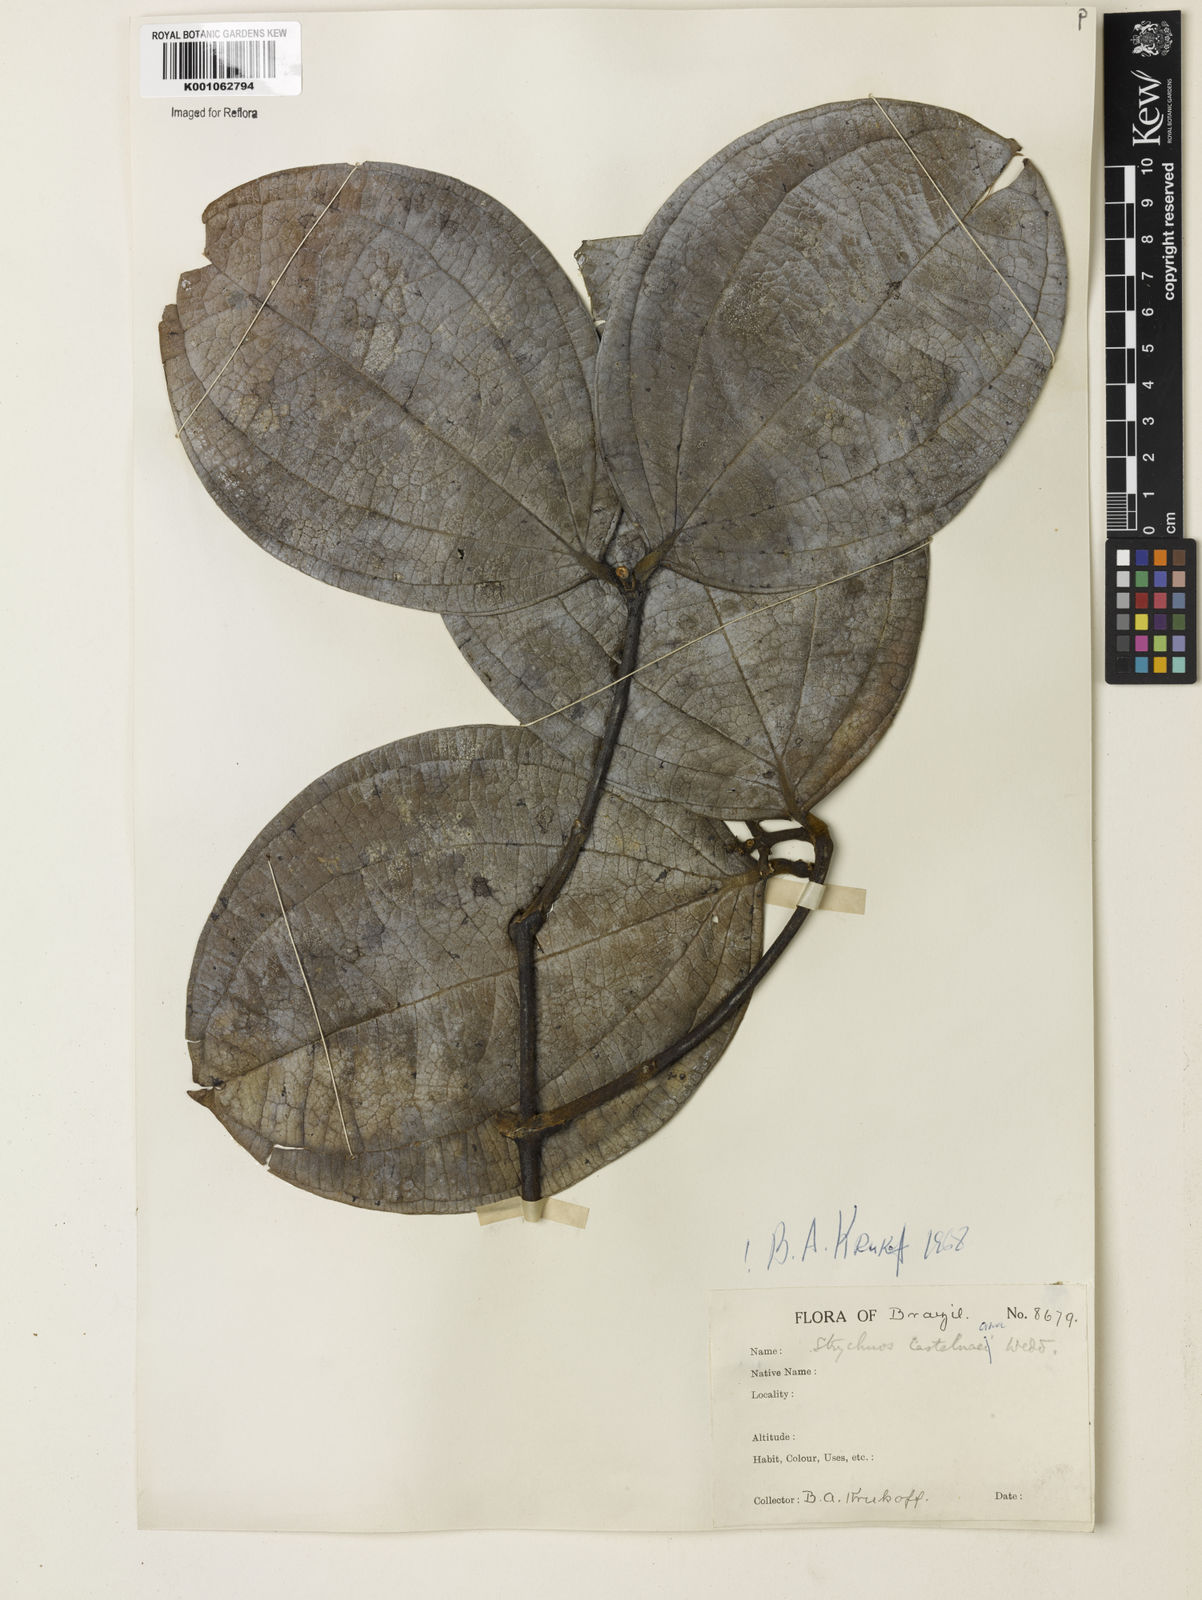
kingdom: Plantae
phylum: Tracheophyta
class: Magnoliopsida
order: Gentianales
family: Loganiaceae
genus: Strychnos
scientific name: Strychnos
